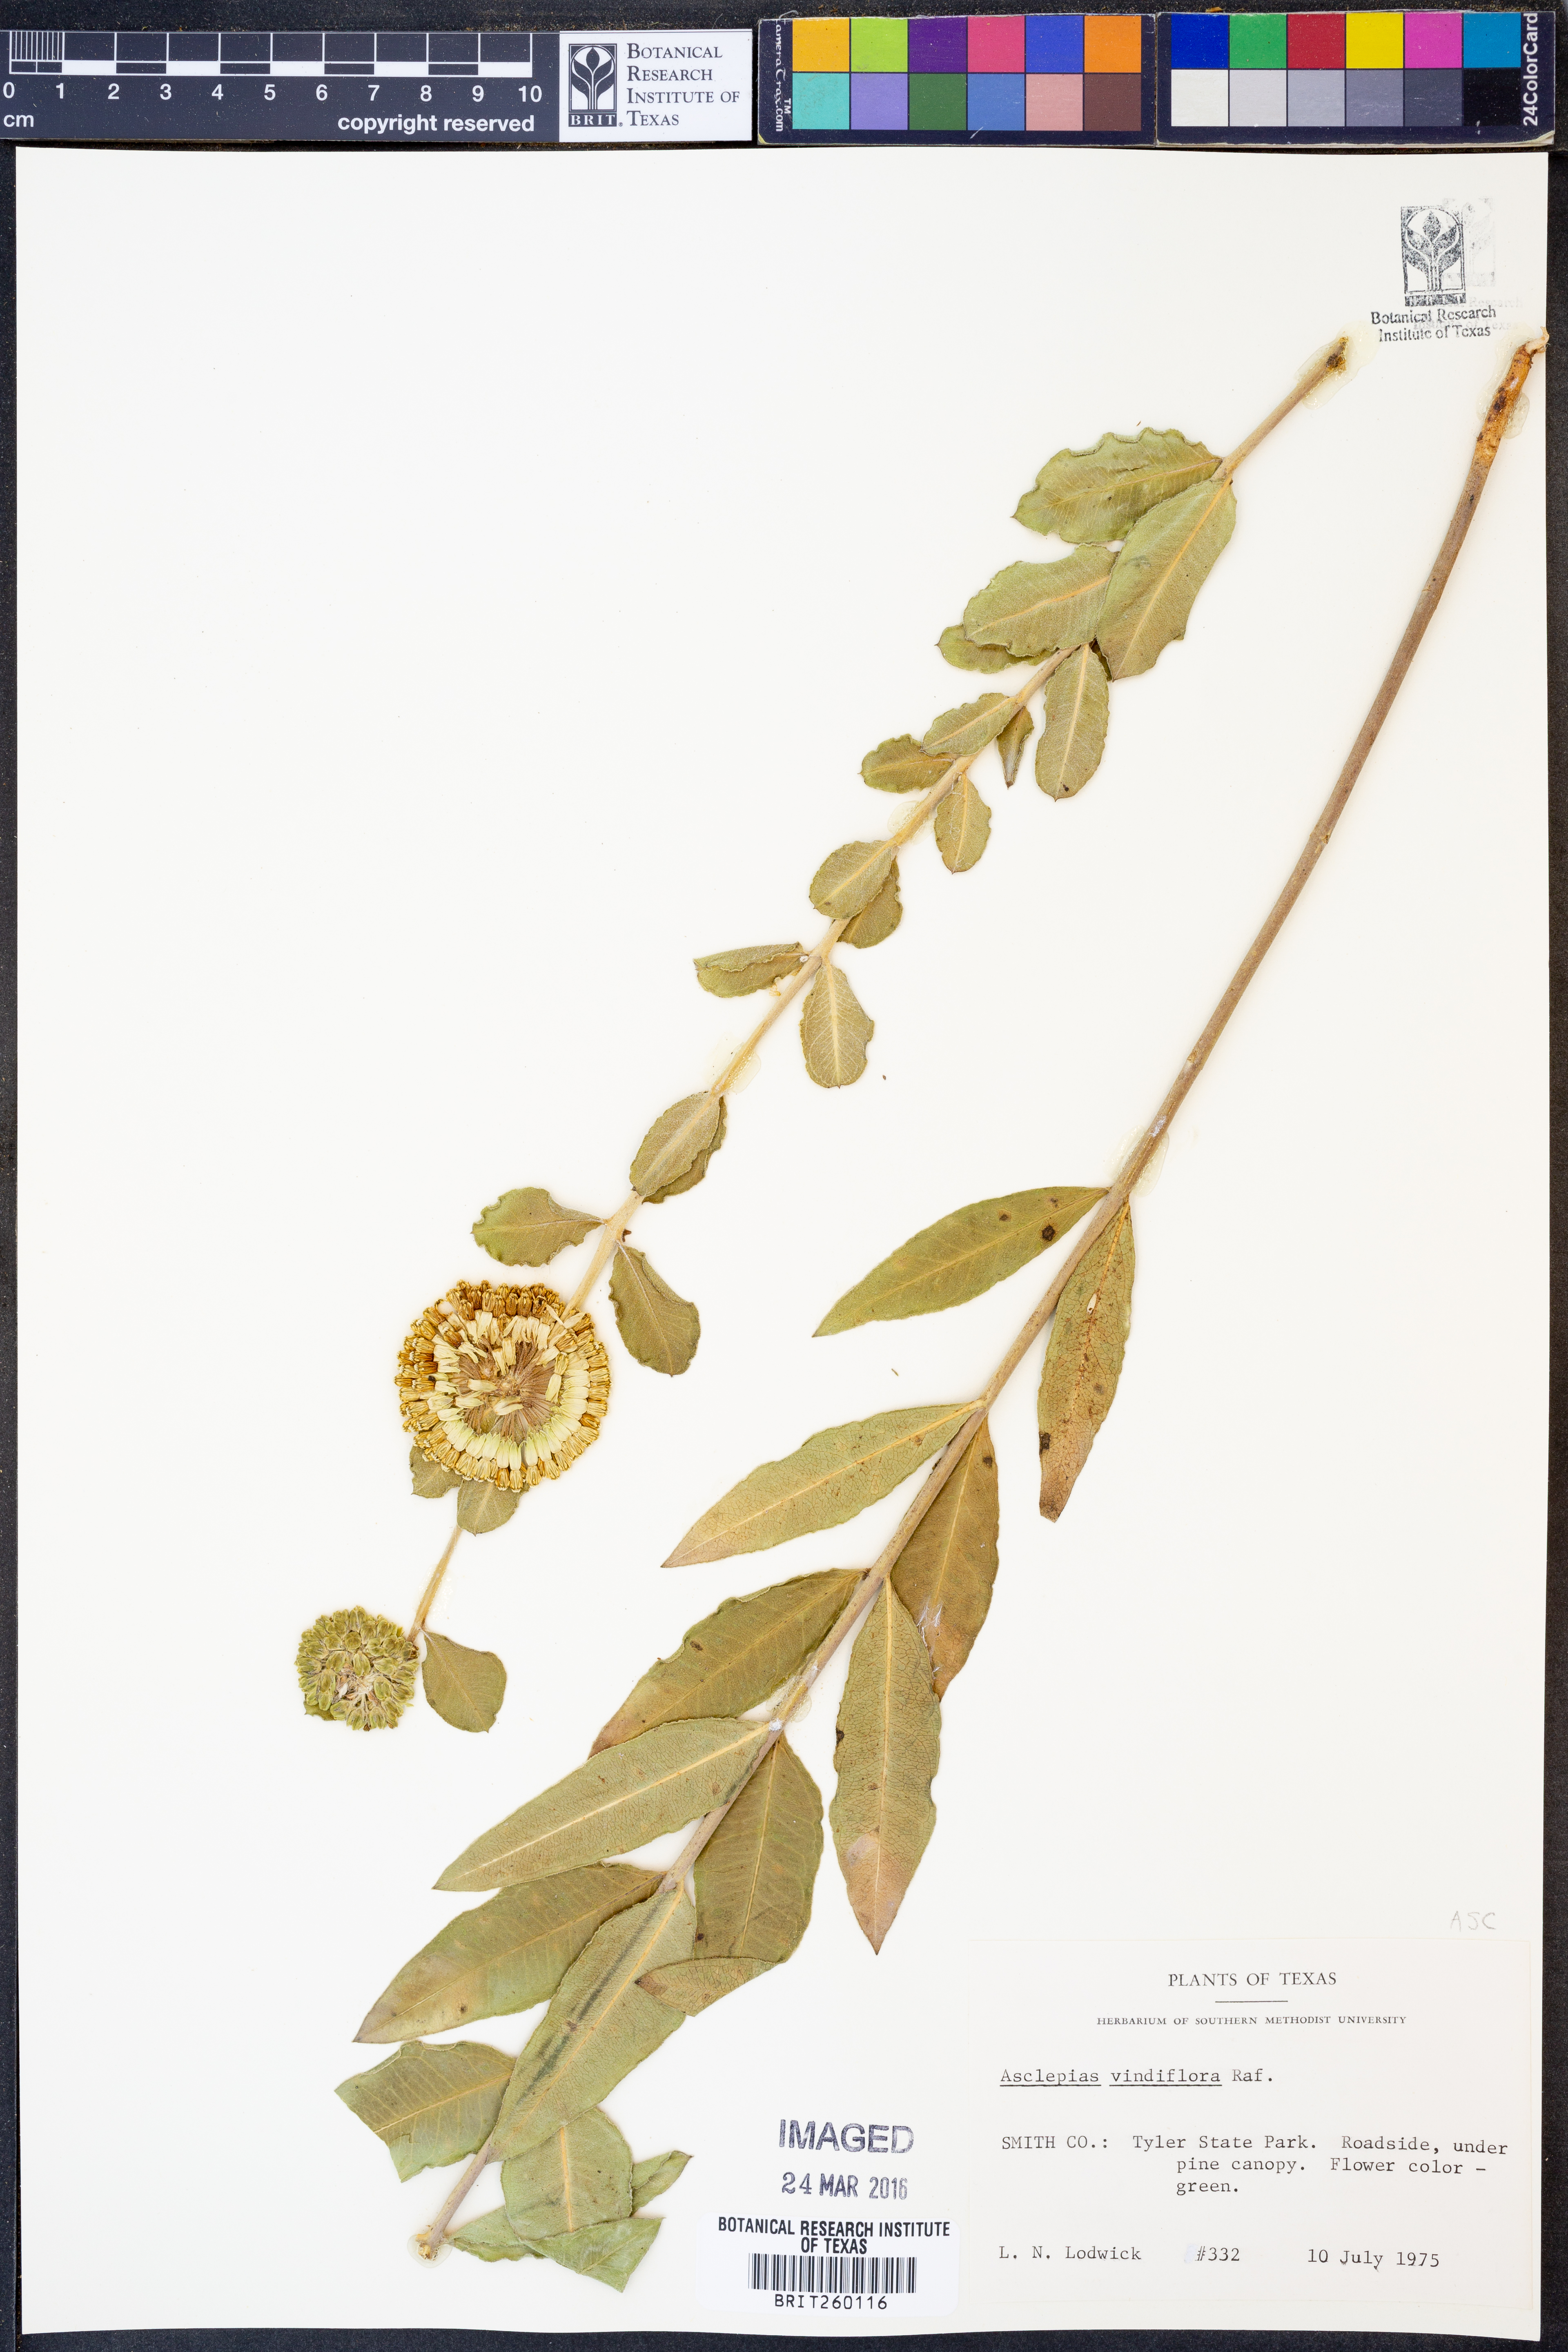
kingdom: Plantae
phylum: Tracheophyta
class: Magnoliopsida
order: Gentianales
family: Apocynaceae
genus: Asclepias
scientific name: Asclepias viridiflora
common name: Green comet milkweed
